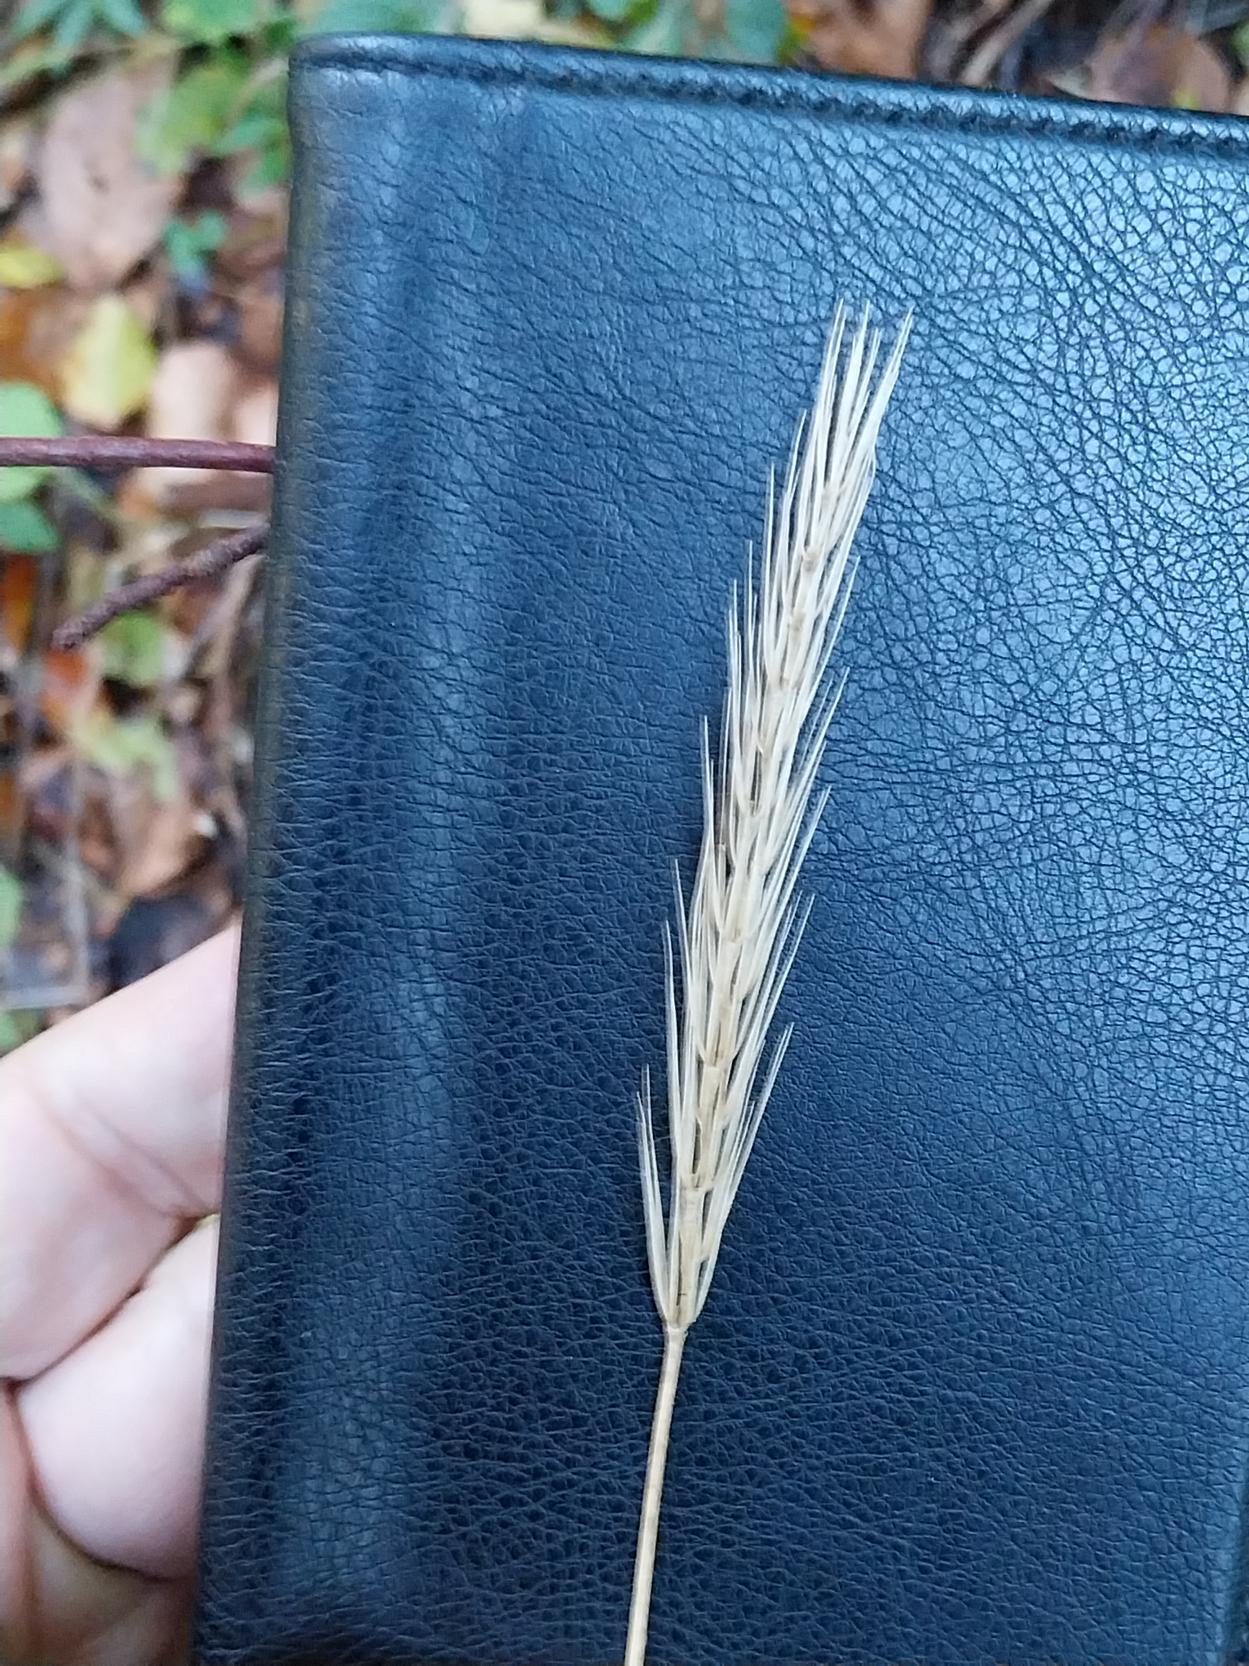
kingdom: Plantae
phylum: Tracheophyta
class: Liliopsida
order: Poales
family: Poaceae
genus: Hordelymus
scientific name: Hordelymus europaeus
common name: Skovbyg
